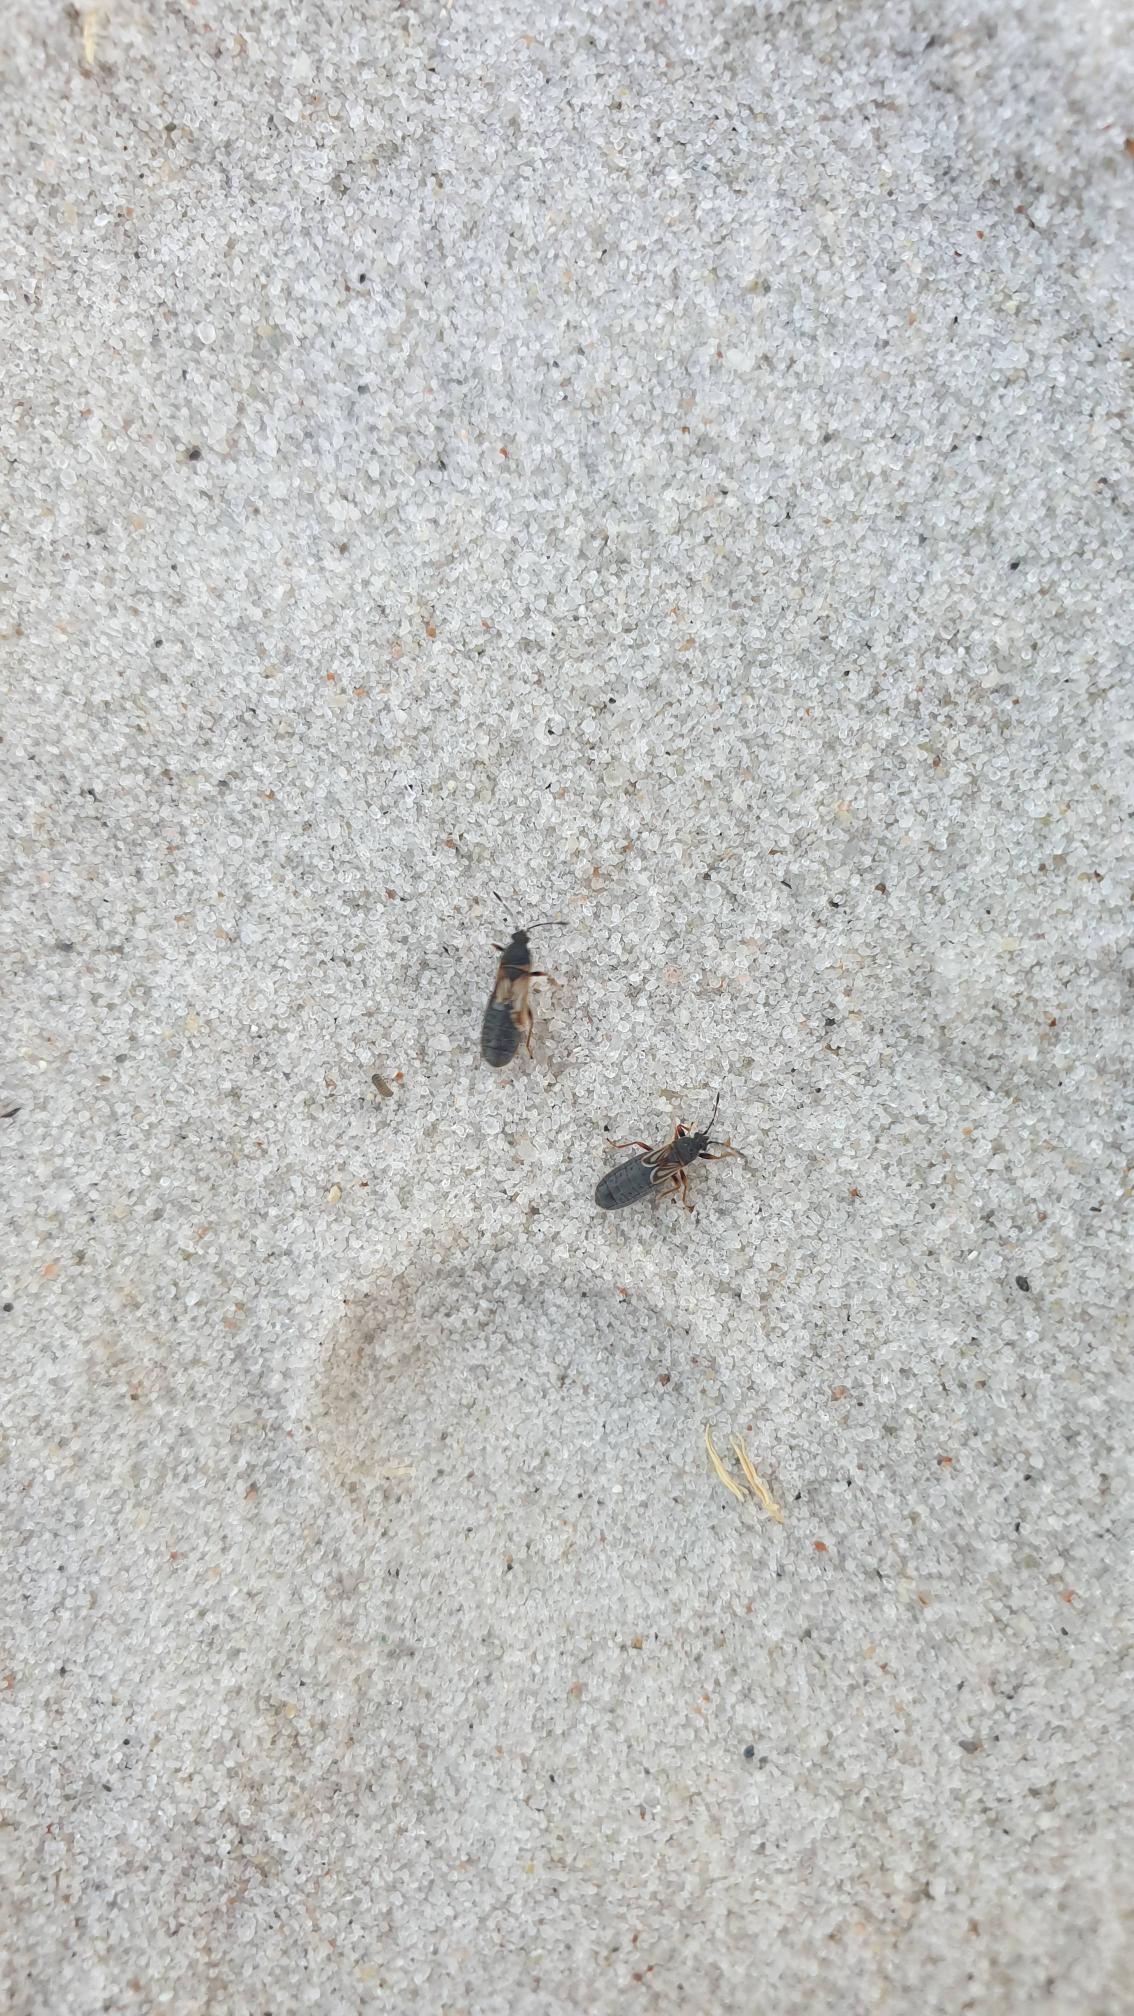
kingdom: Animalia
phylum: Arthropoda
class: Insecta
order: Hemiptera
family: Blissidae
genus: Ischnodemus
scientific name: Ischnodemus sabuleti
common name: Smaltæge
